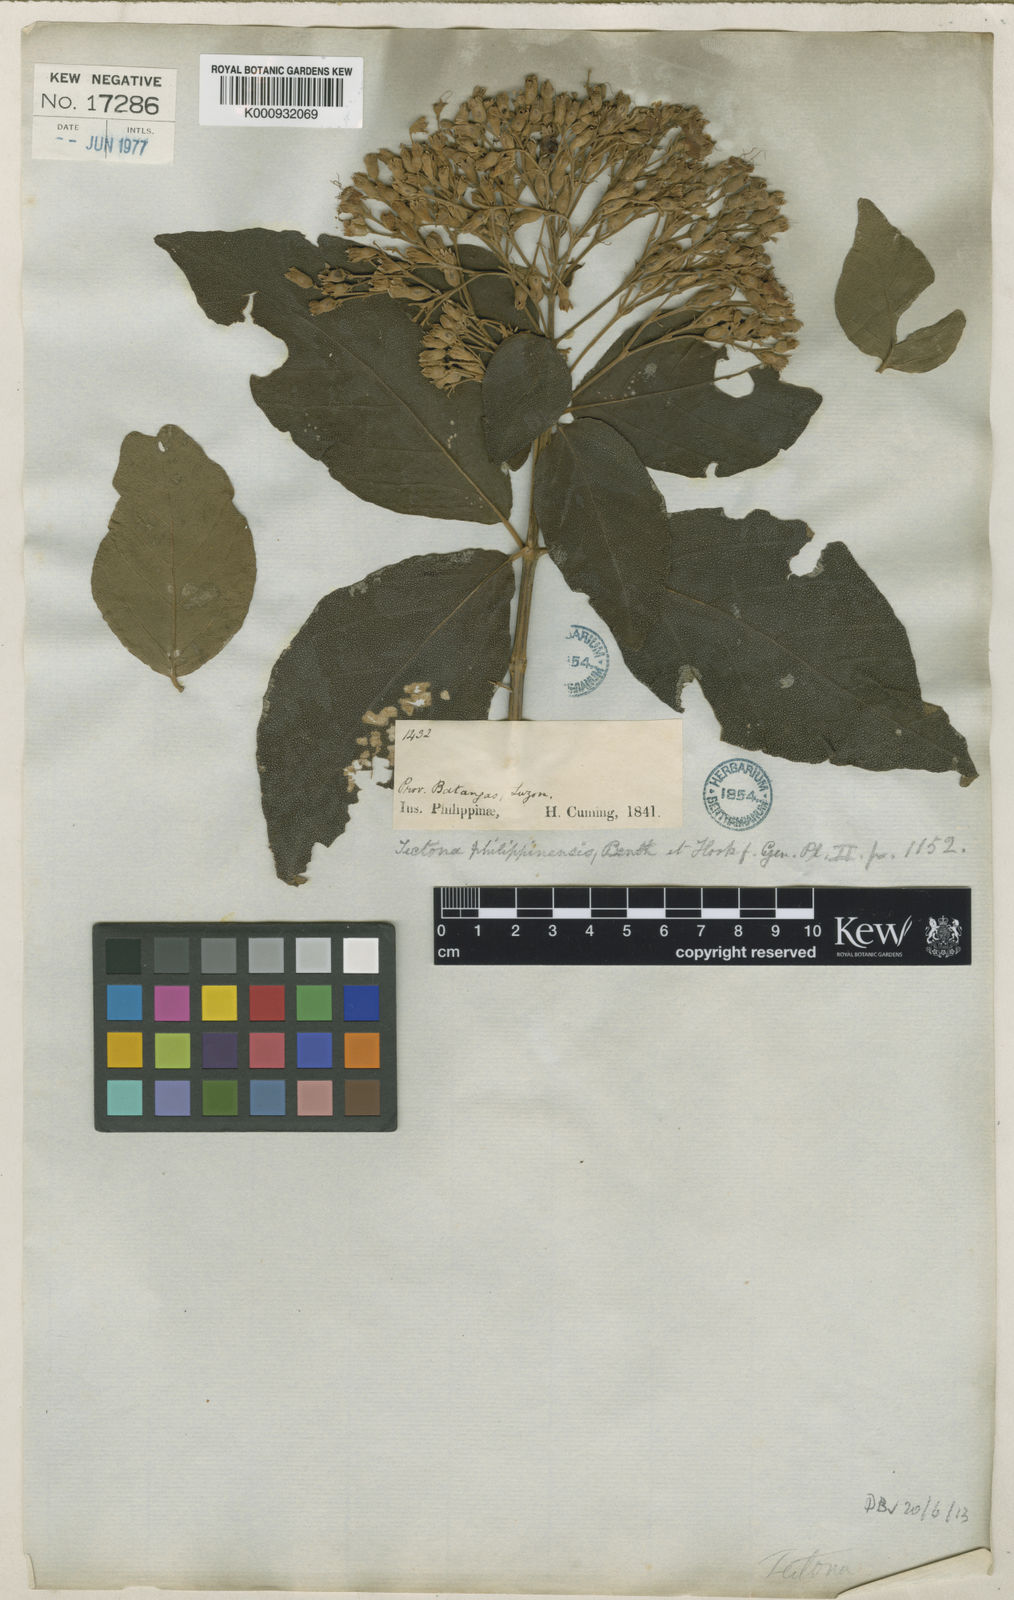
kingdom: Plantae
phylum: Tracheophyta
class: Magnoliopsida
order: Lamiales
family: Lamiaceae
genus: Tectona
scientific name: Tectona
